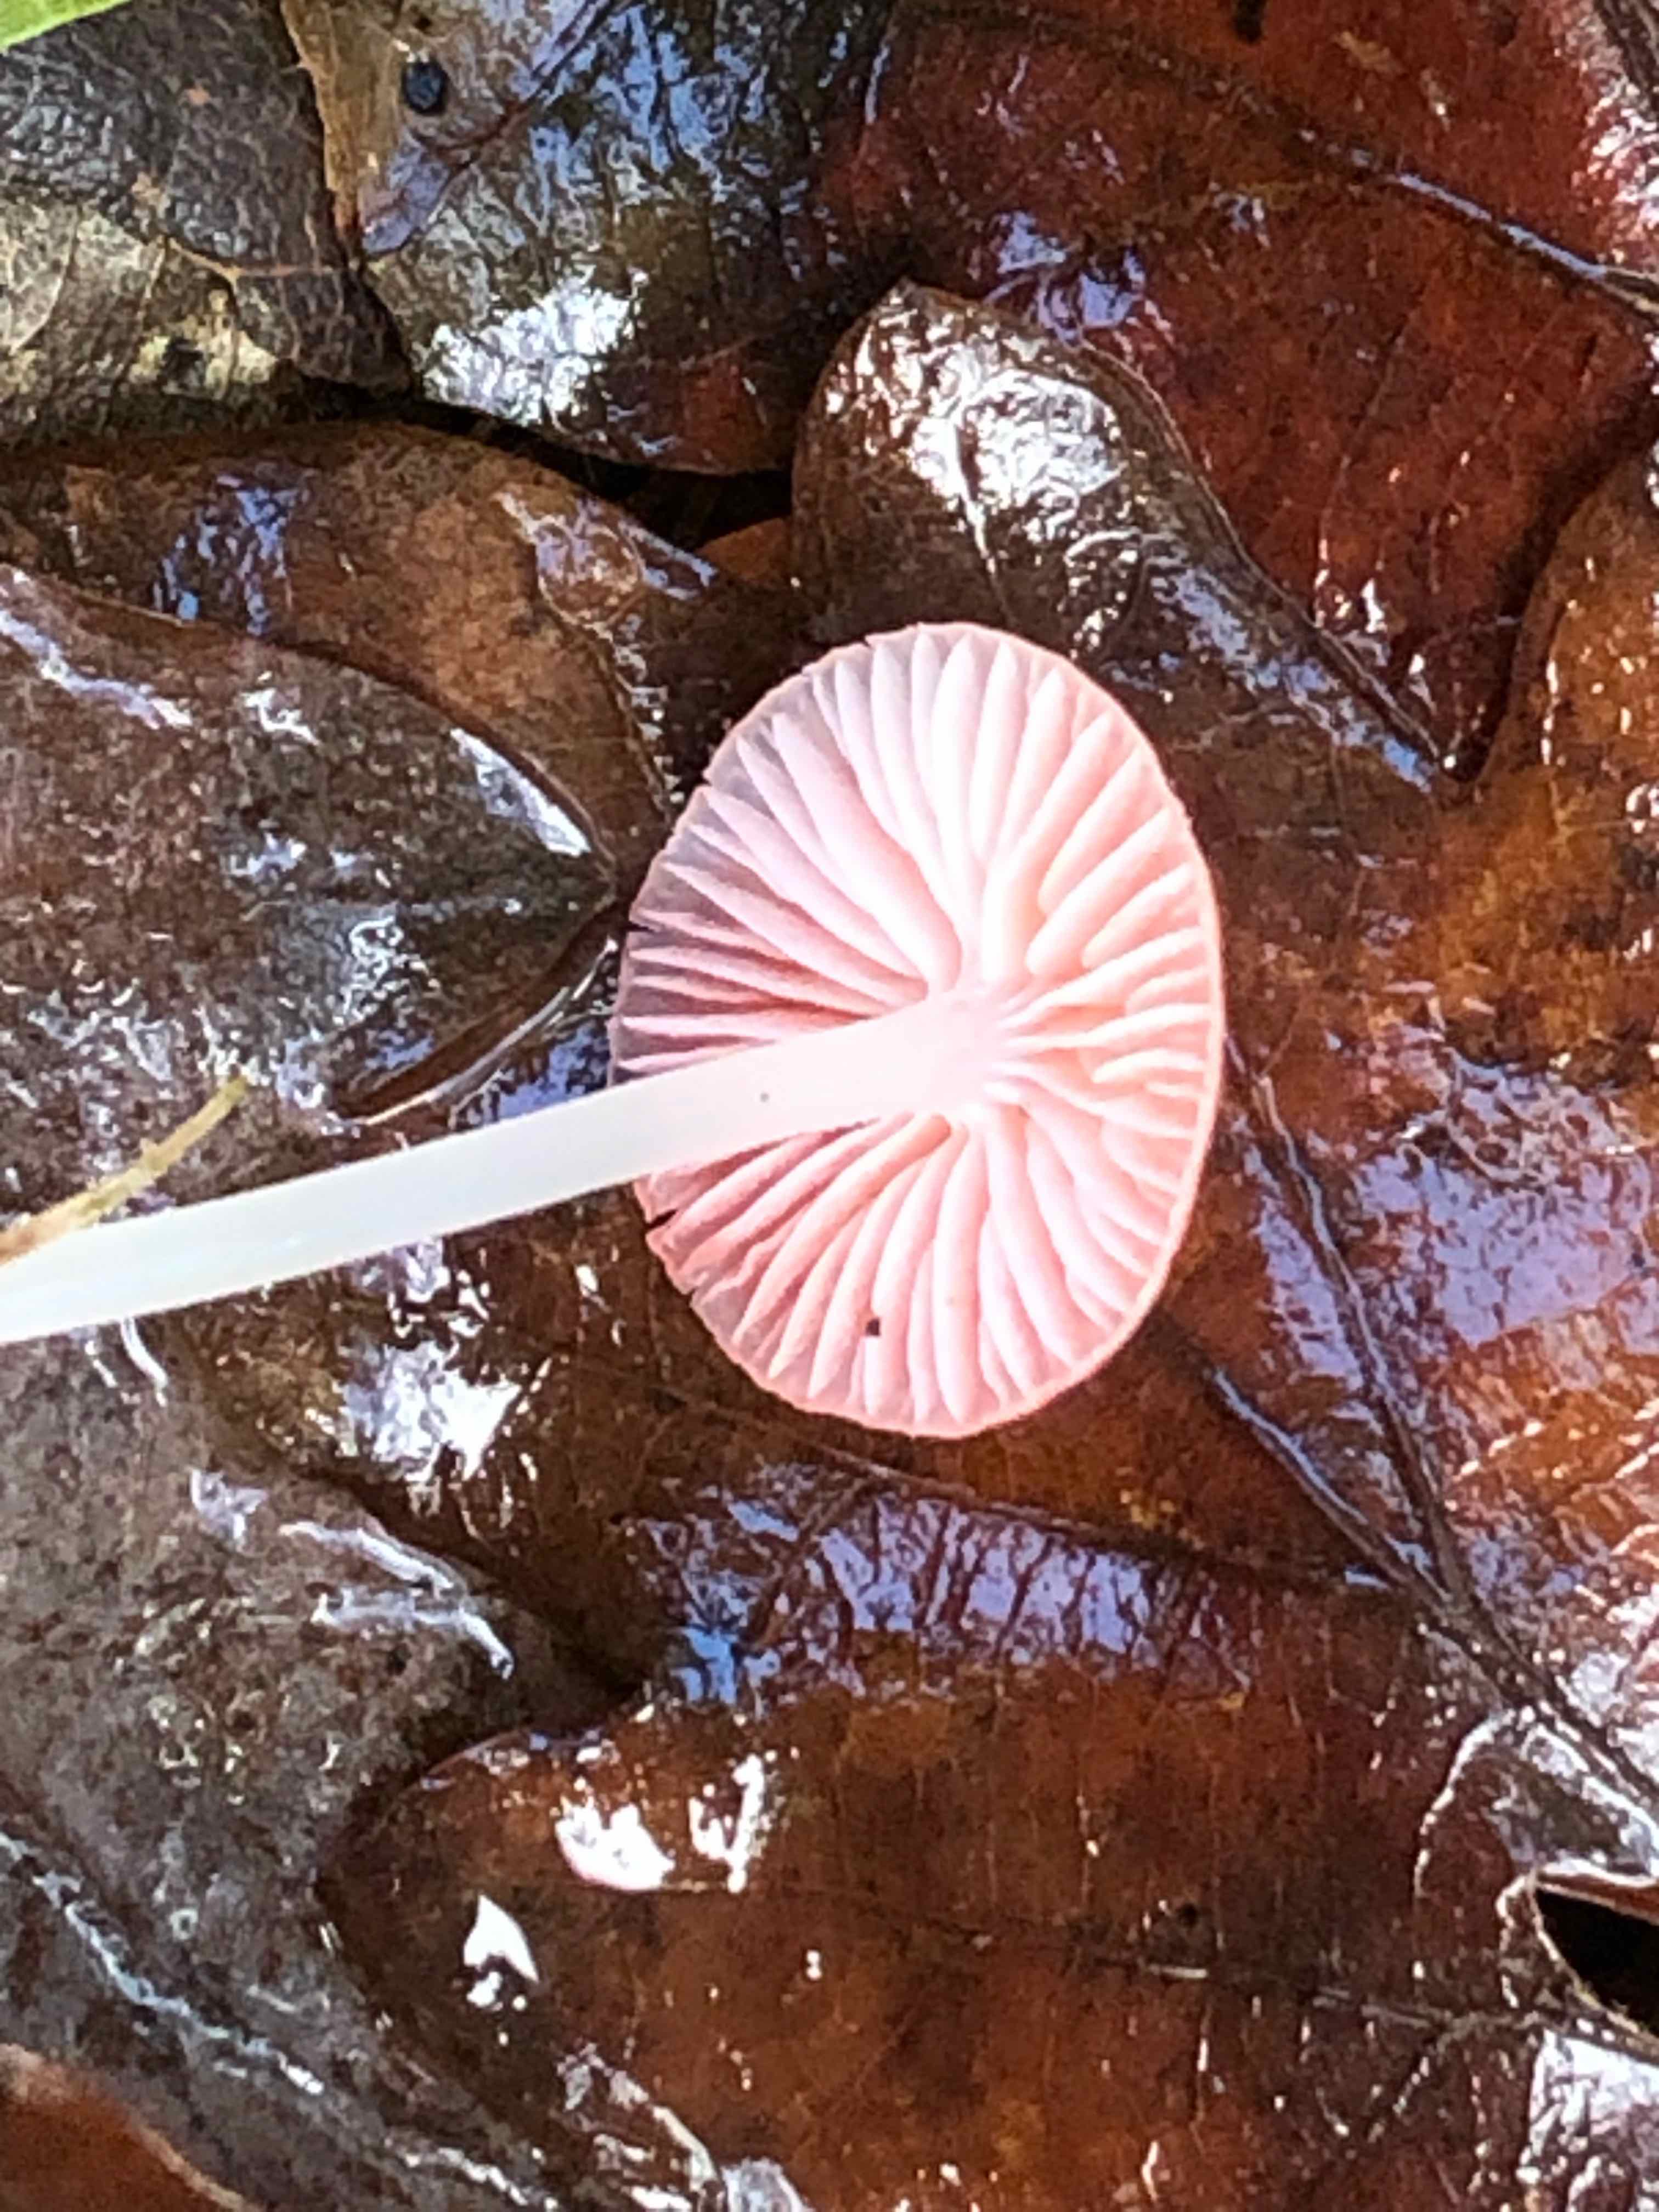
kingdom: Fungi
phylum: Basidiomycota
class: Agaricomycetes
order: Agaricales
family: Mycenaceae
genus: Atheniella
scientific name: Atheniella adonis
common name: rønnerød huesvamp
